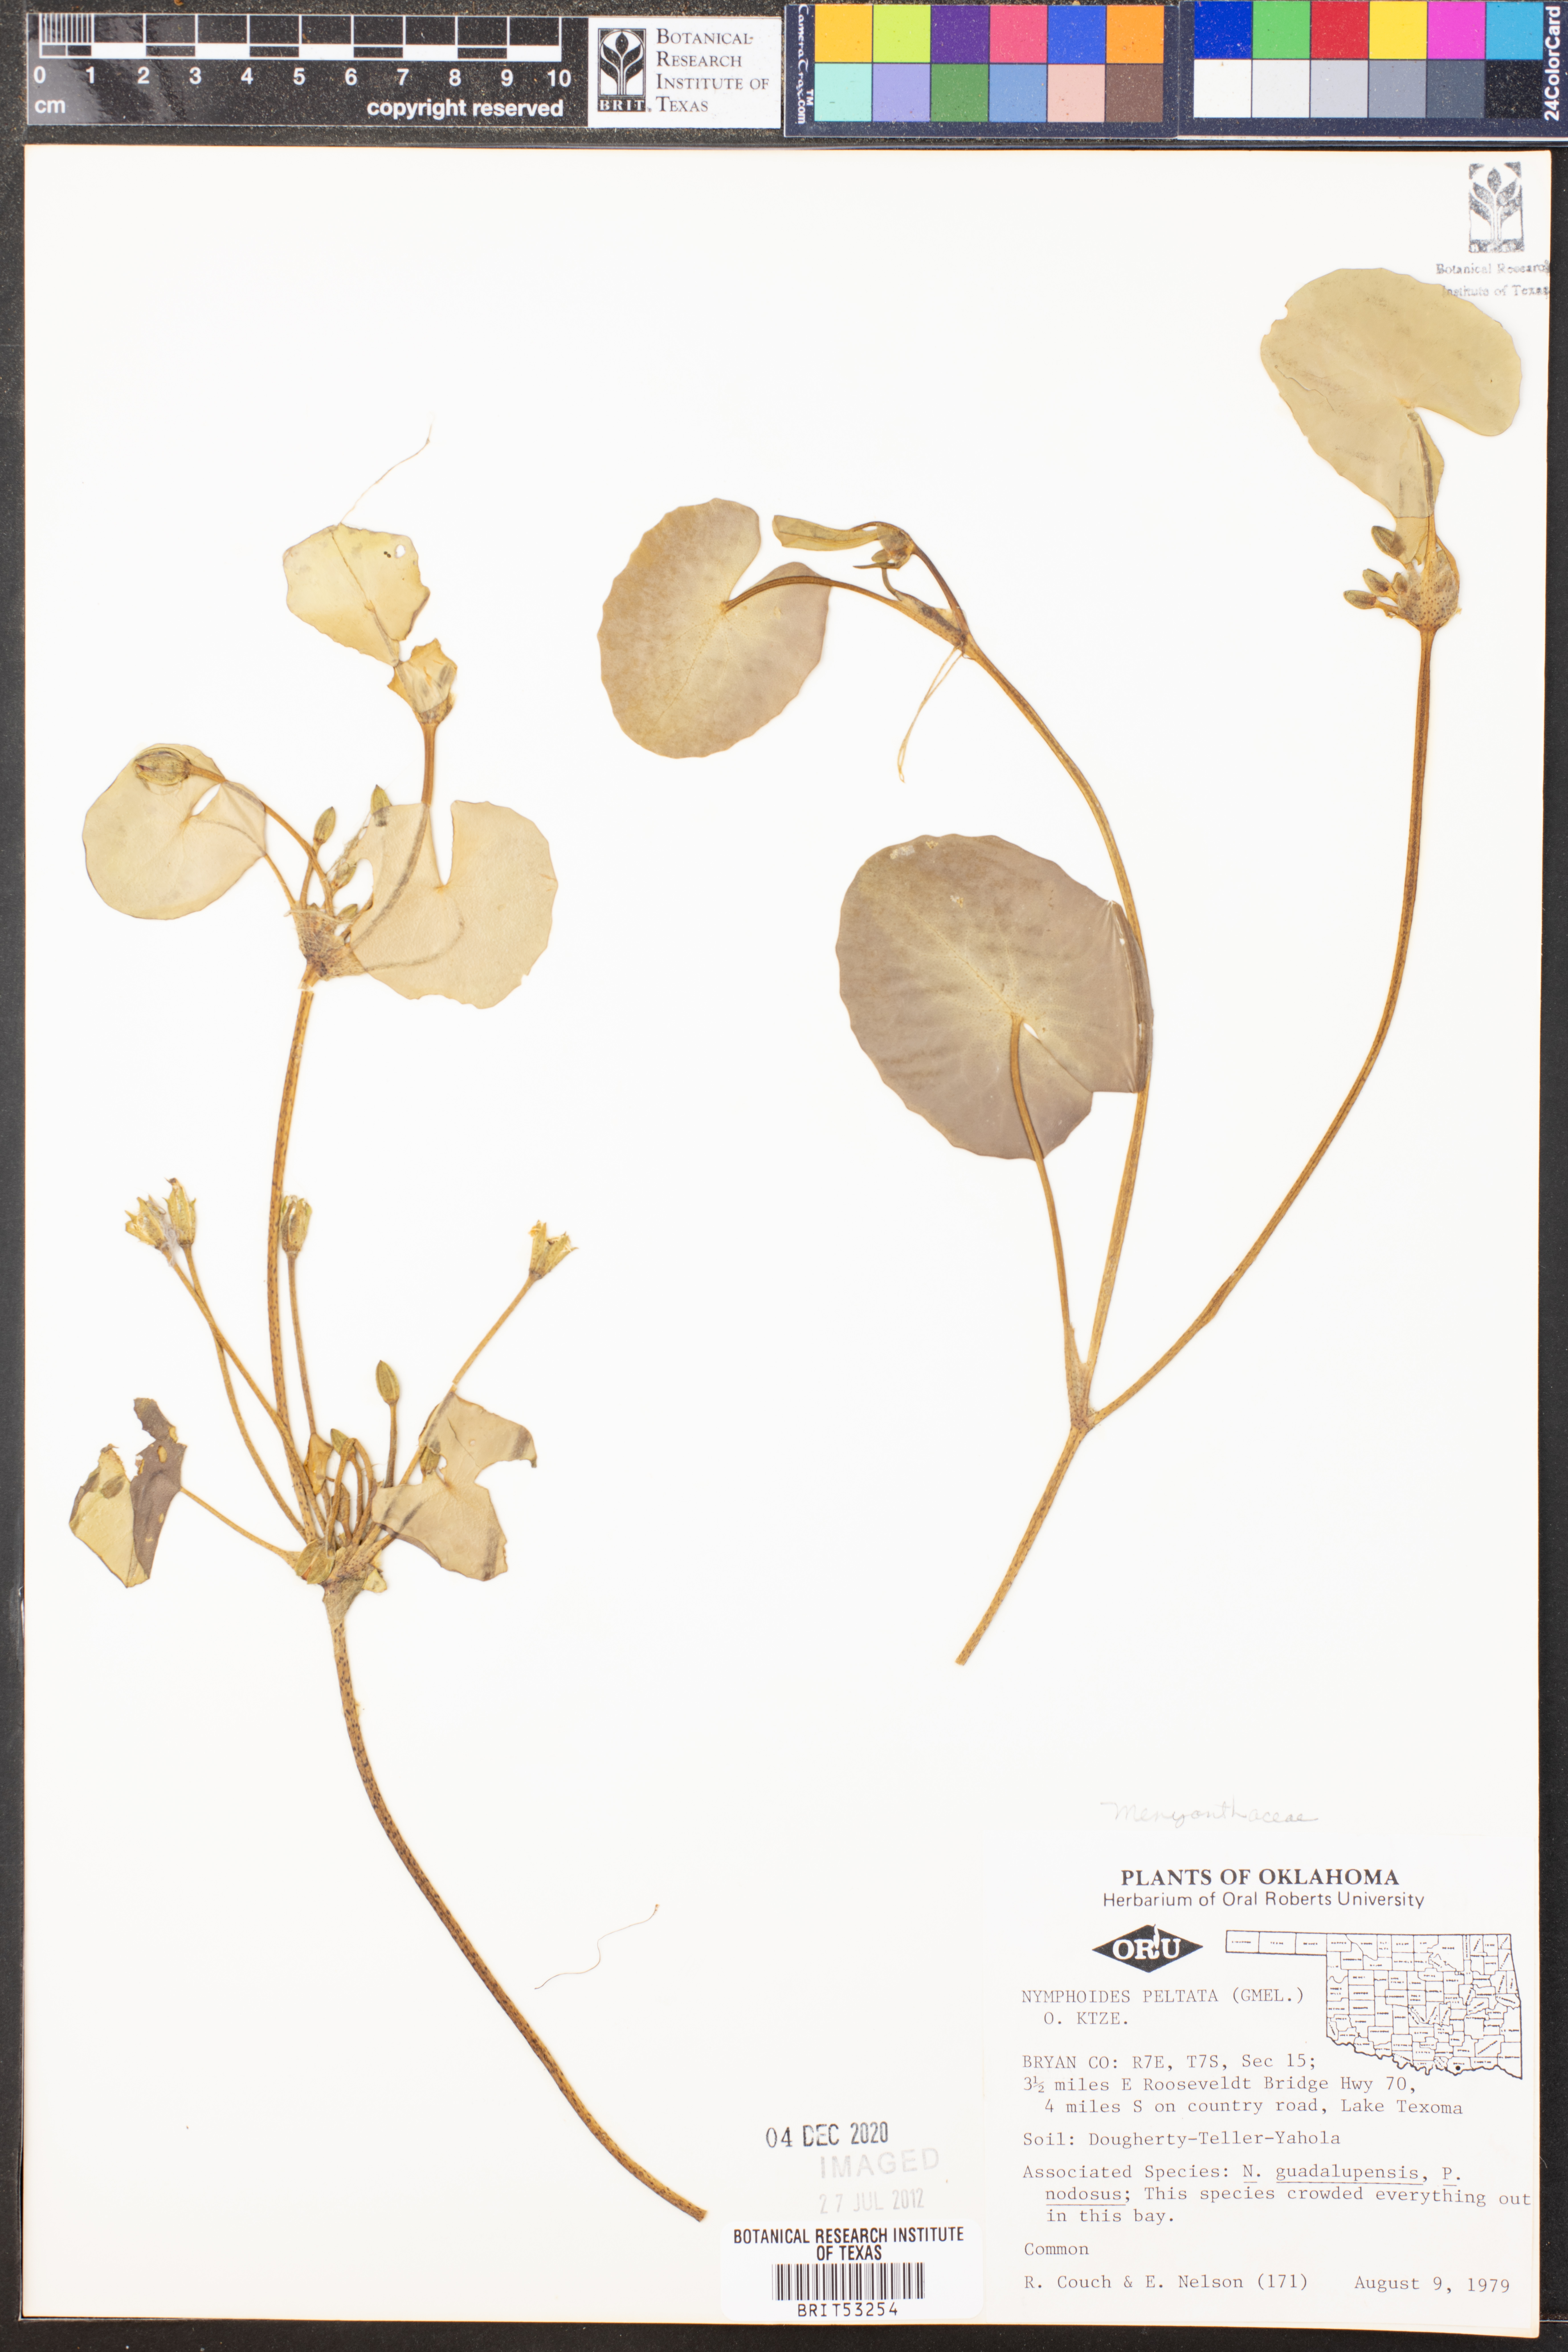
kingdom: Plantae
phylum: Tracheophyta
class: Magnoliopsida
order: Asterales
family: Menyanthaceae
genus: Nymphoides
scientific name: Nymphoides peltata
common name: Fringed water-lily
